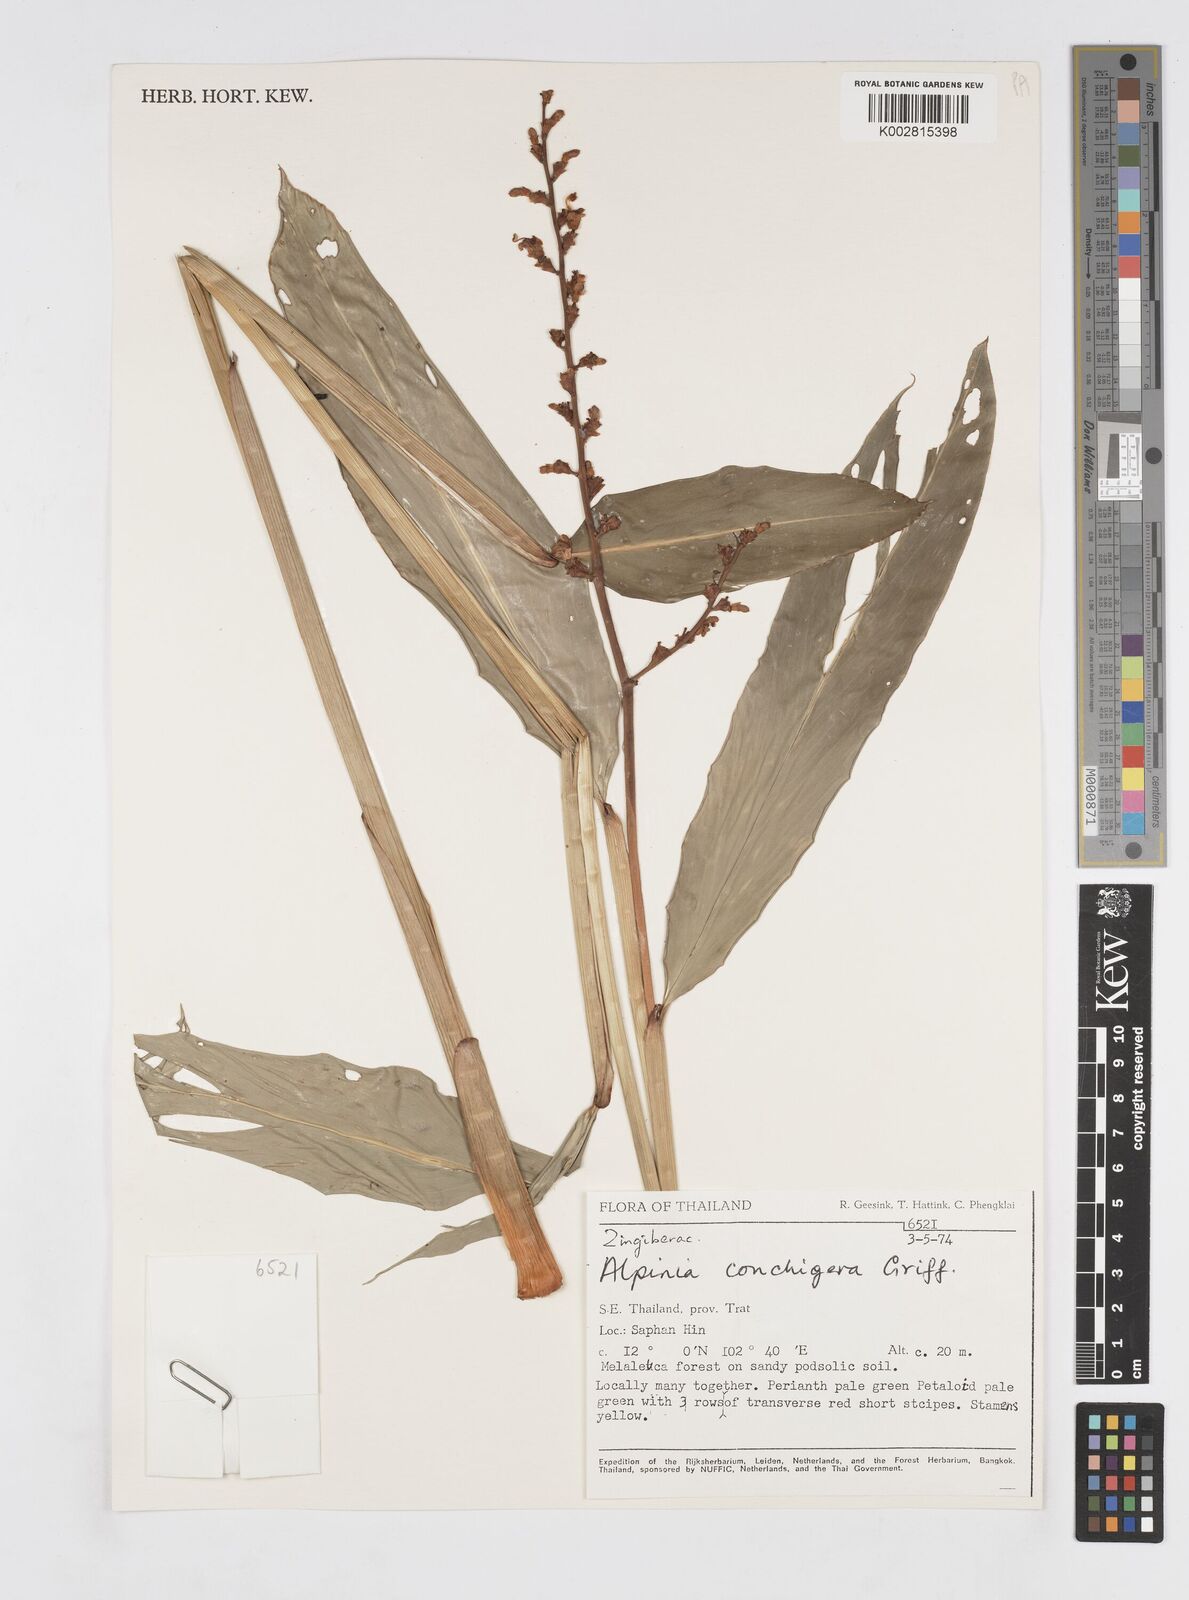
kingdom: Plantae
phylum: Tracheophyta
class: Liliopsida
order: Zingiberales
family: Zingiberaceae
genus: Alpinia
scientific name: Alpinia conchigera
